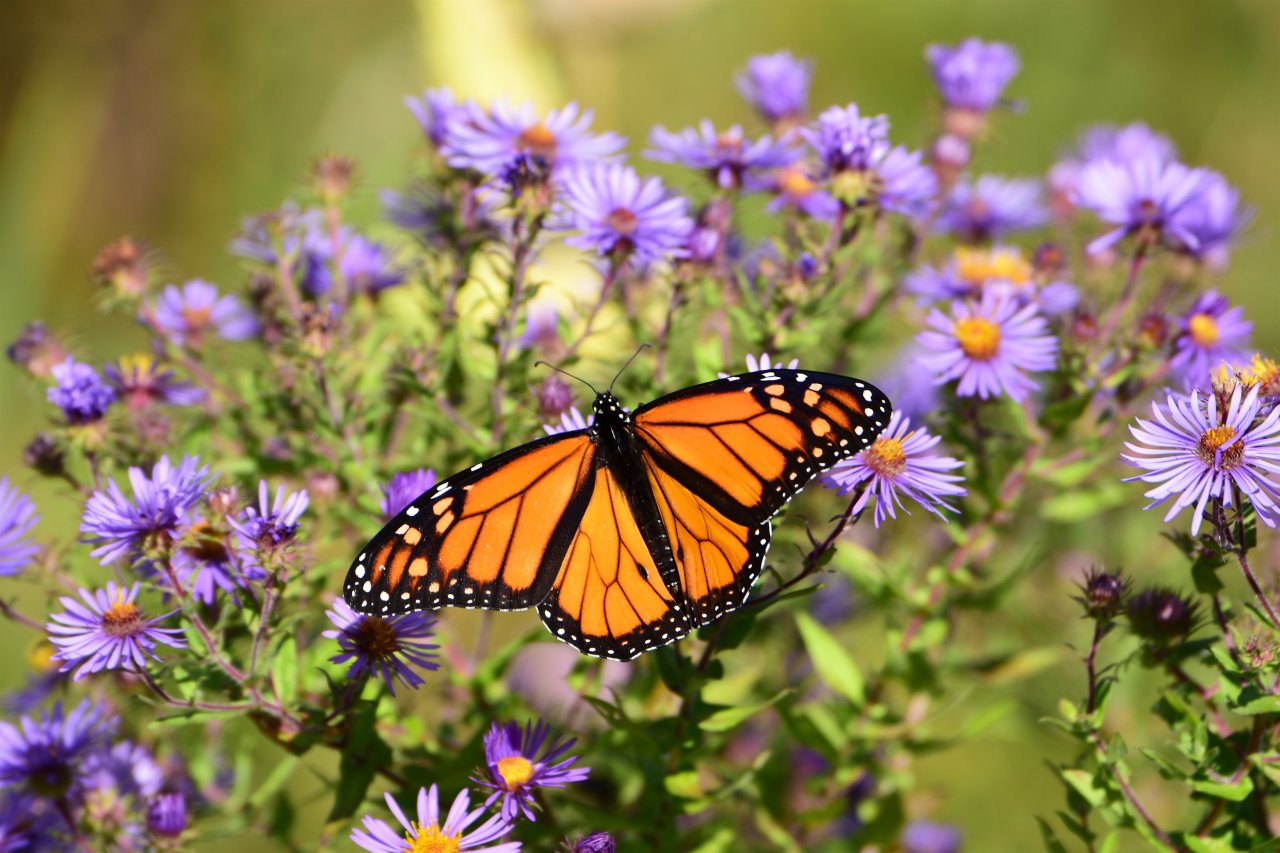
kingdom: Animalia
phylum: Arthropoda
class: Insecta
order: Lepidoptera
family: Nymphalidae
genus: Danaus
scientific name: Danaus plexippus
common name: Monarch
